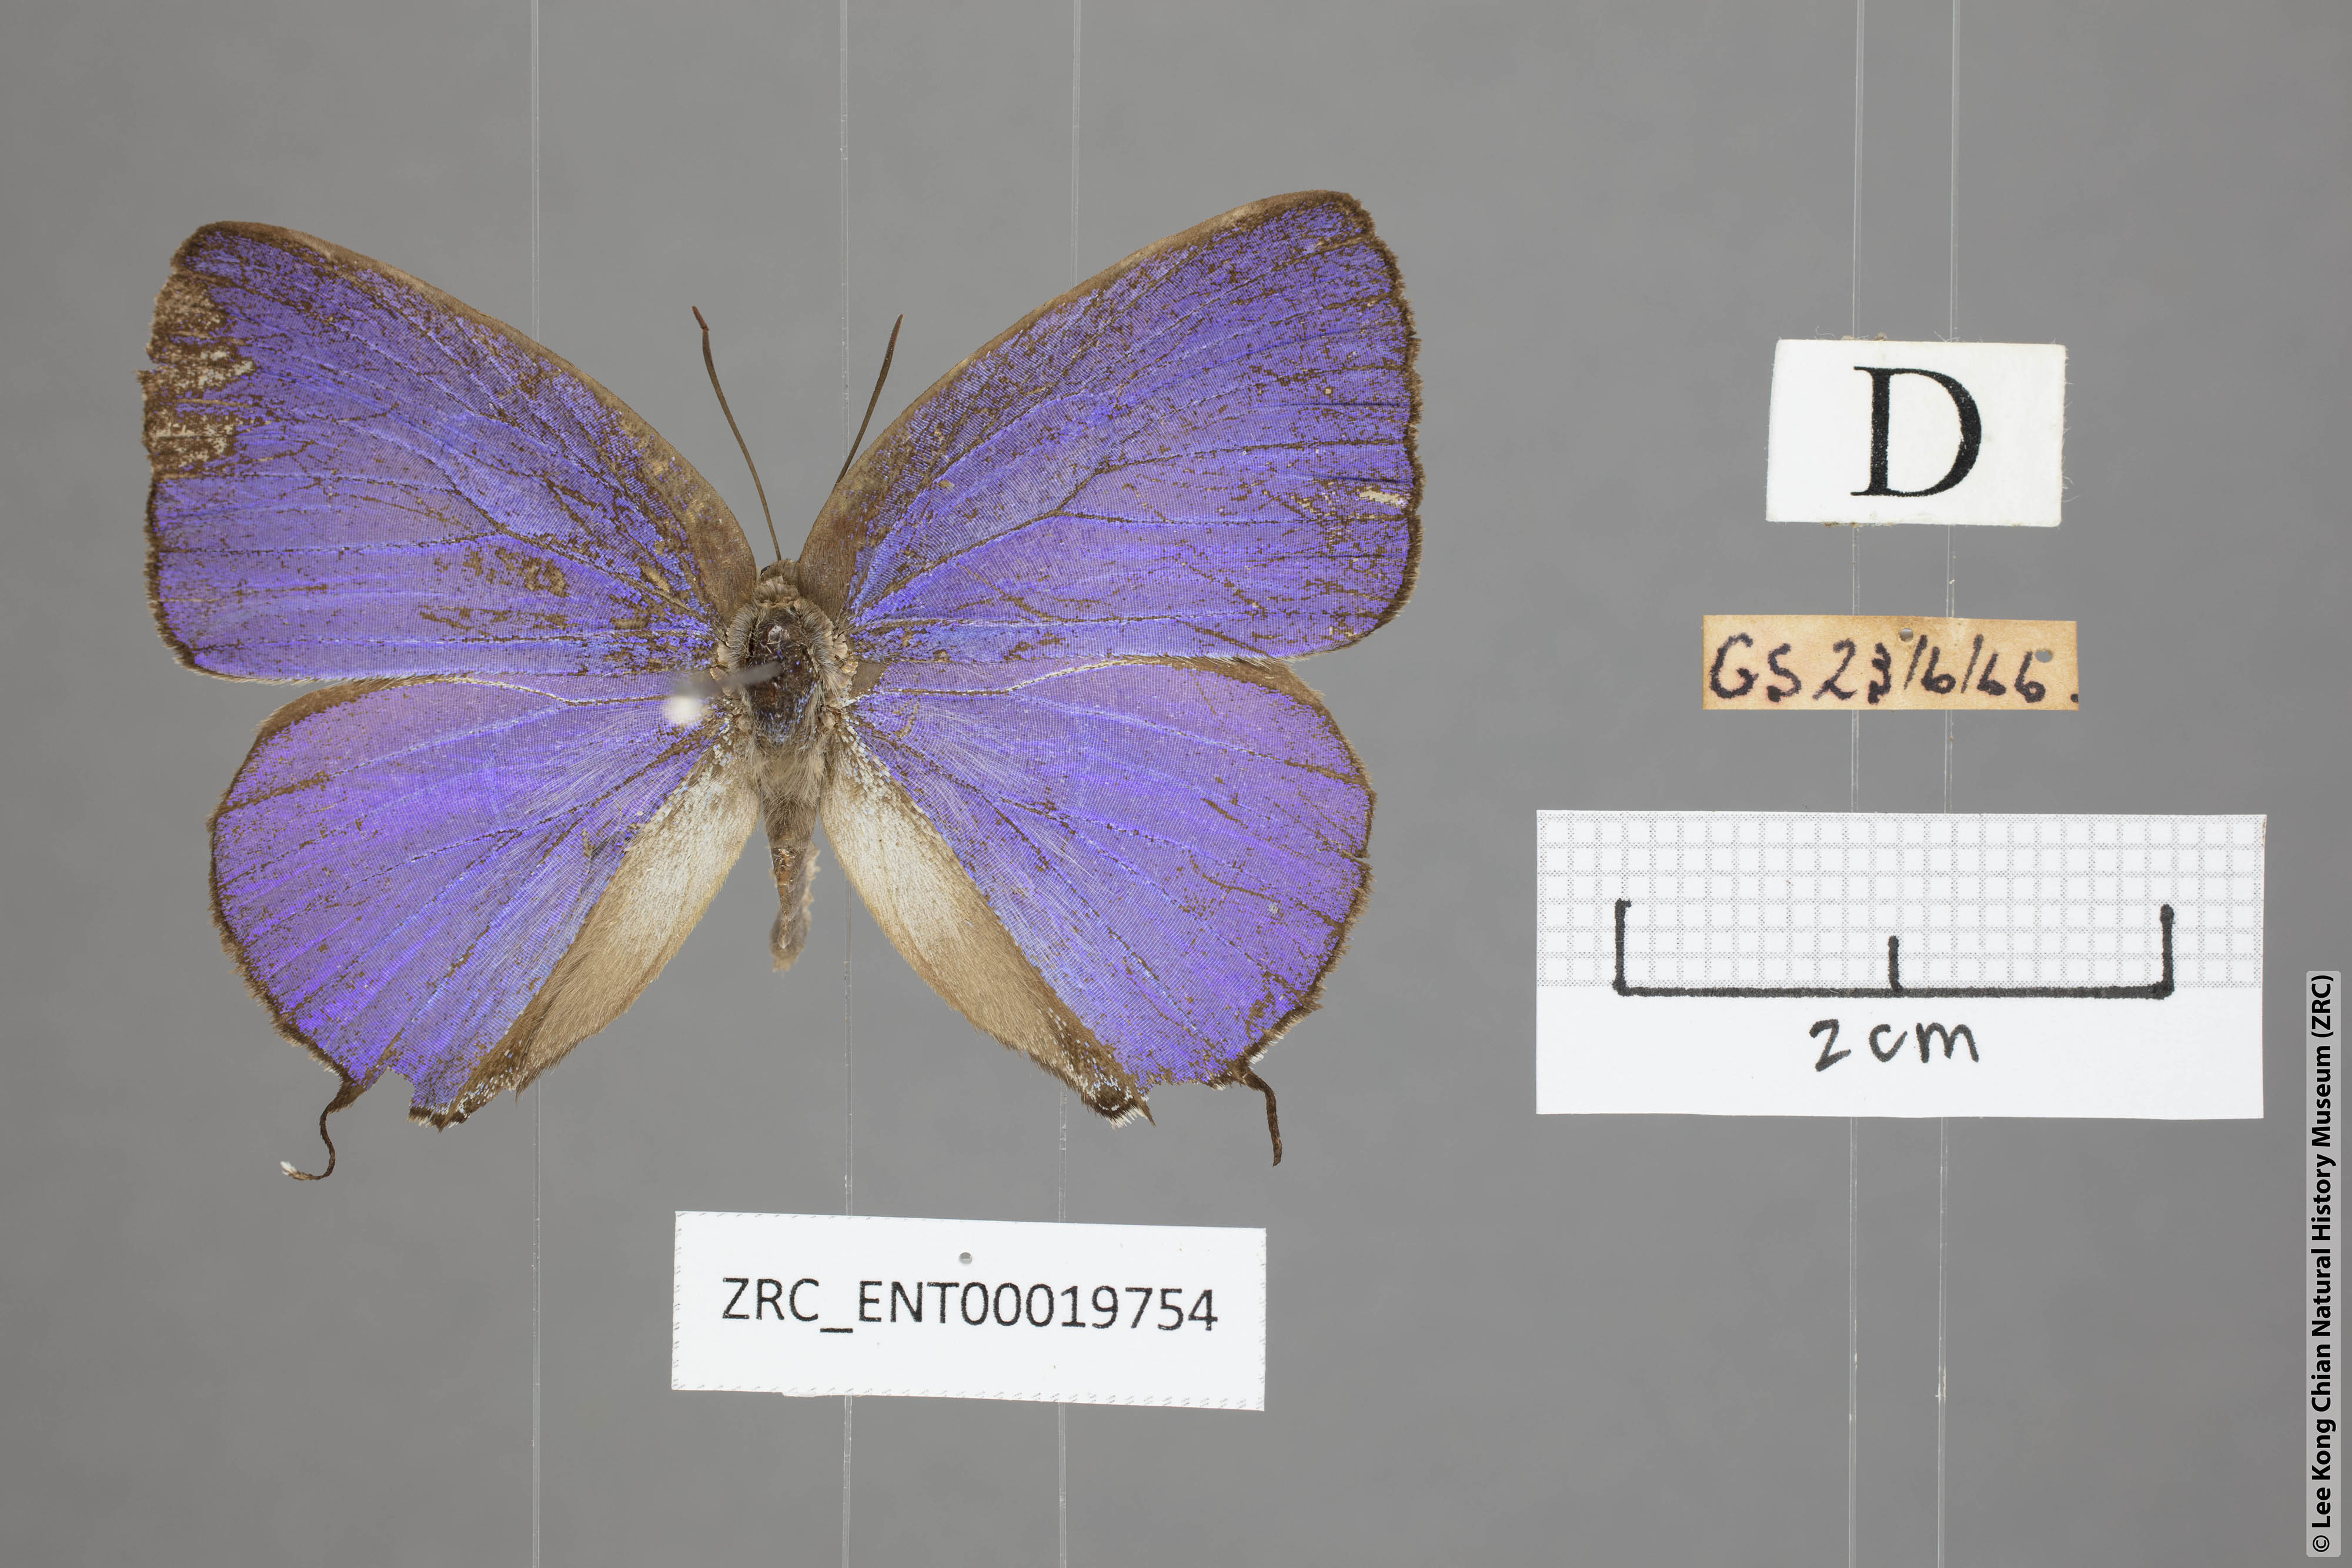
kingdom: Animalia
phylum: Arthropoda
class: Insecta
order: Lepidoptera
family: Lycaenidae
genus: Arhopala
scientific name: Arhopala opalina
